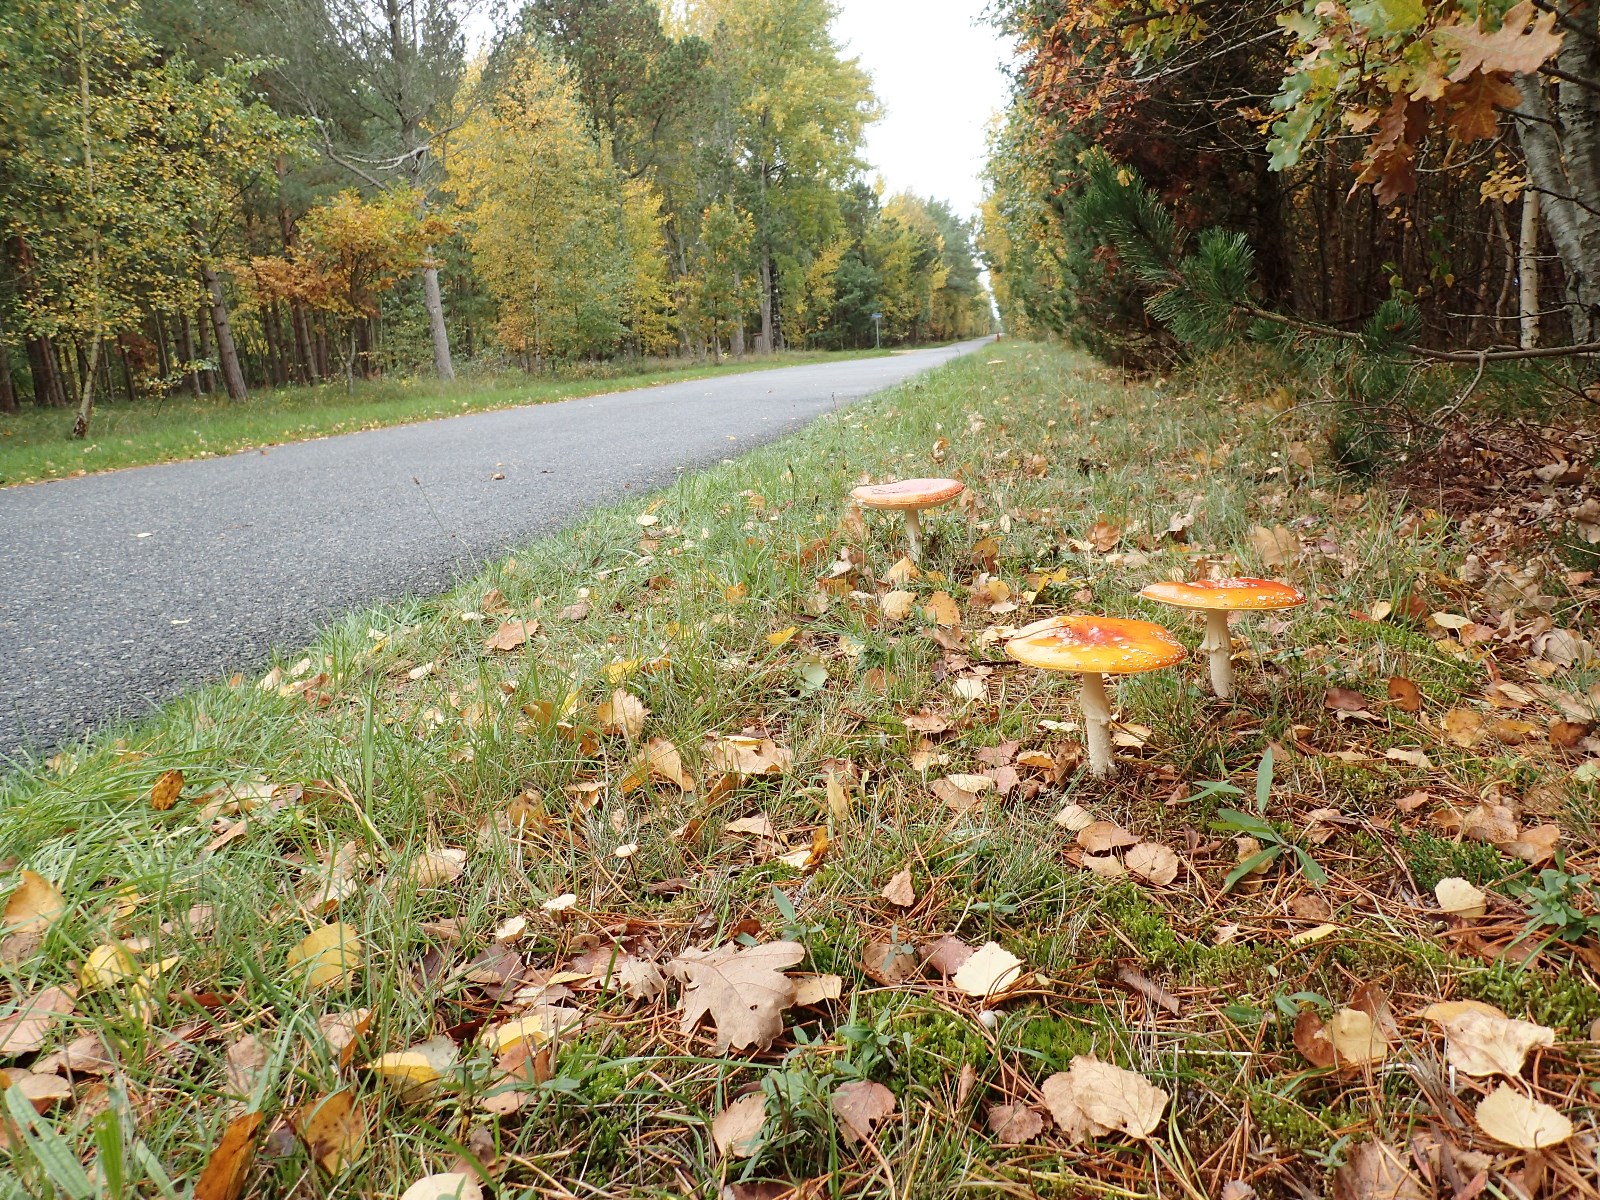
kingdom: Fungi
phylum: Basidiomycota
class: Agaricomycetes
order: Agaricales
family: Amanitaceae
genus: Amanita
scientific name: Amanita muscaria
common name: rød fluesvamp
